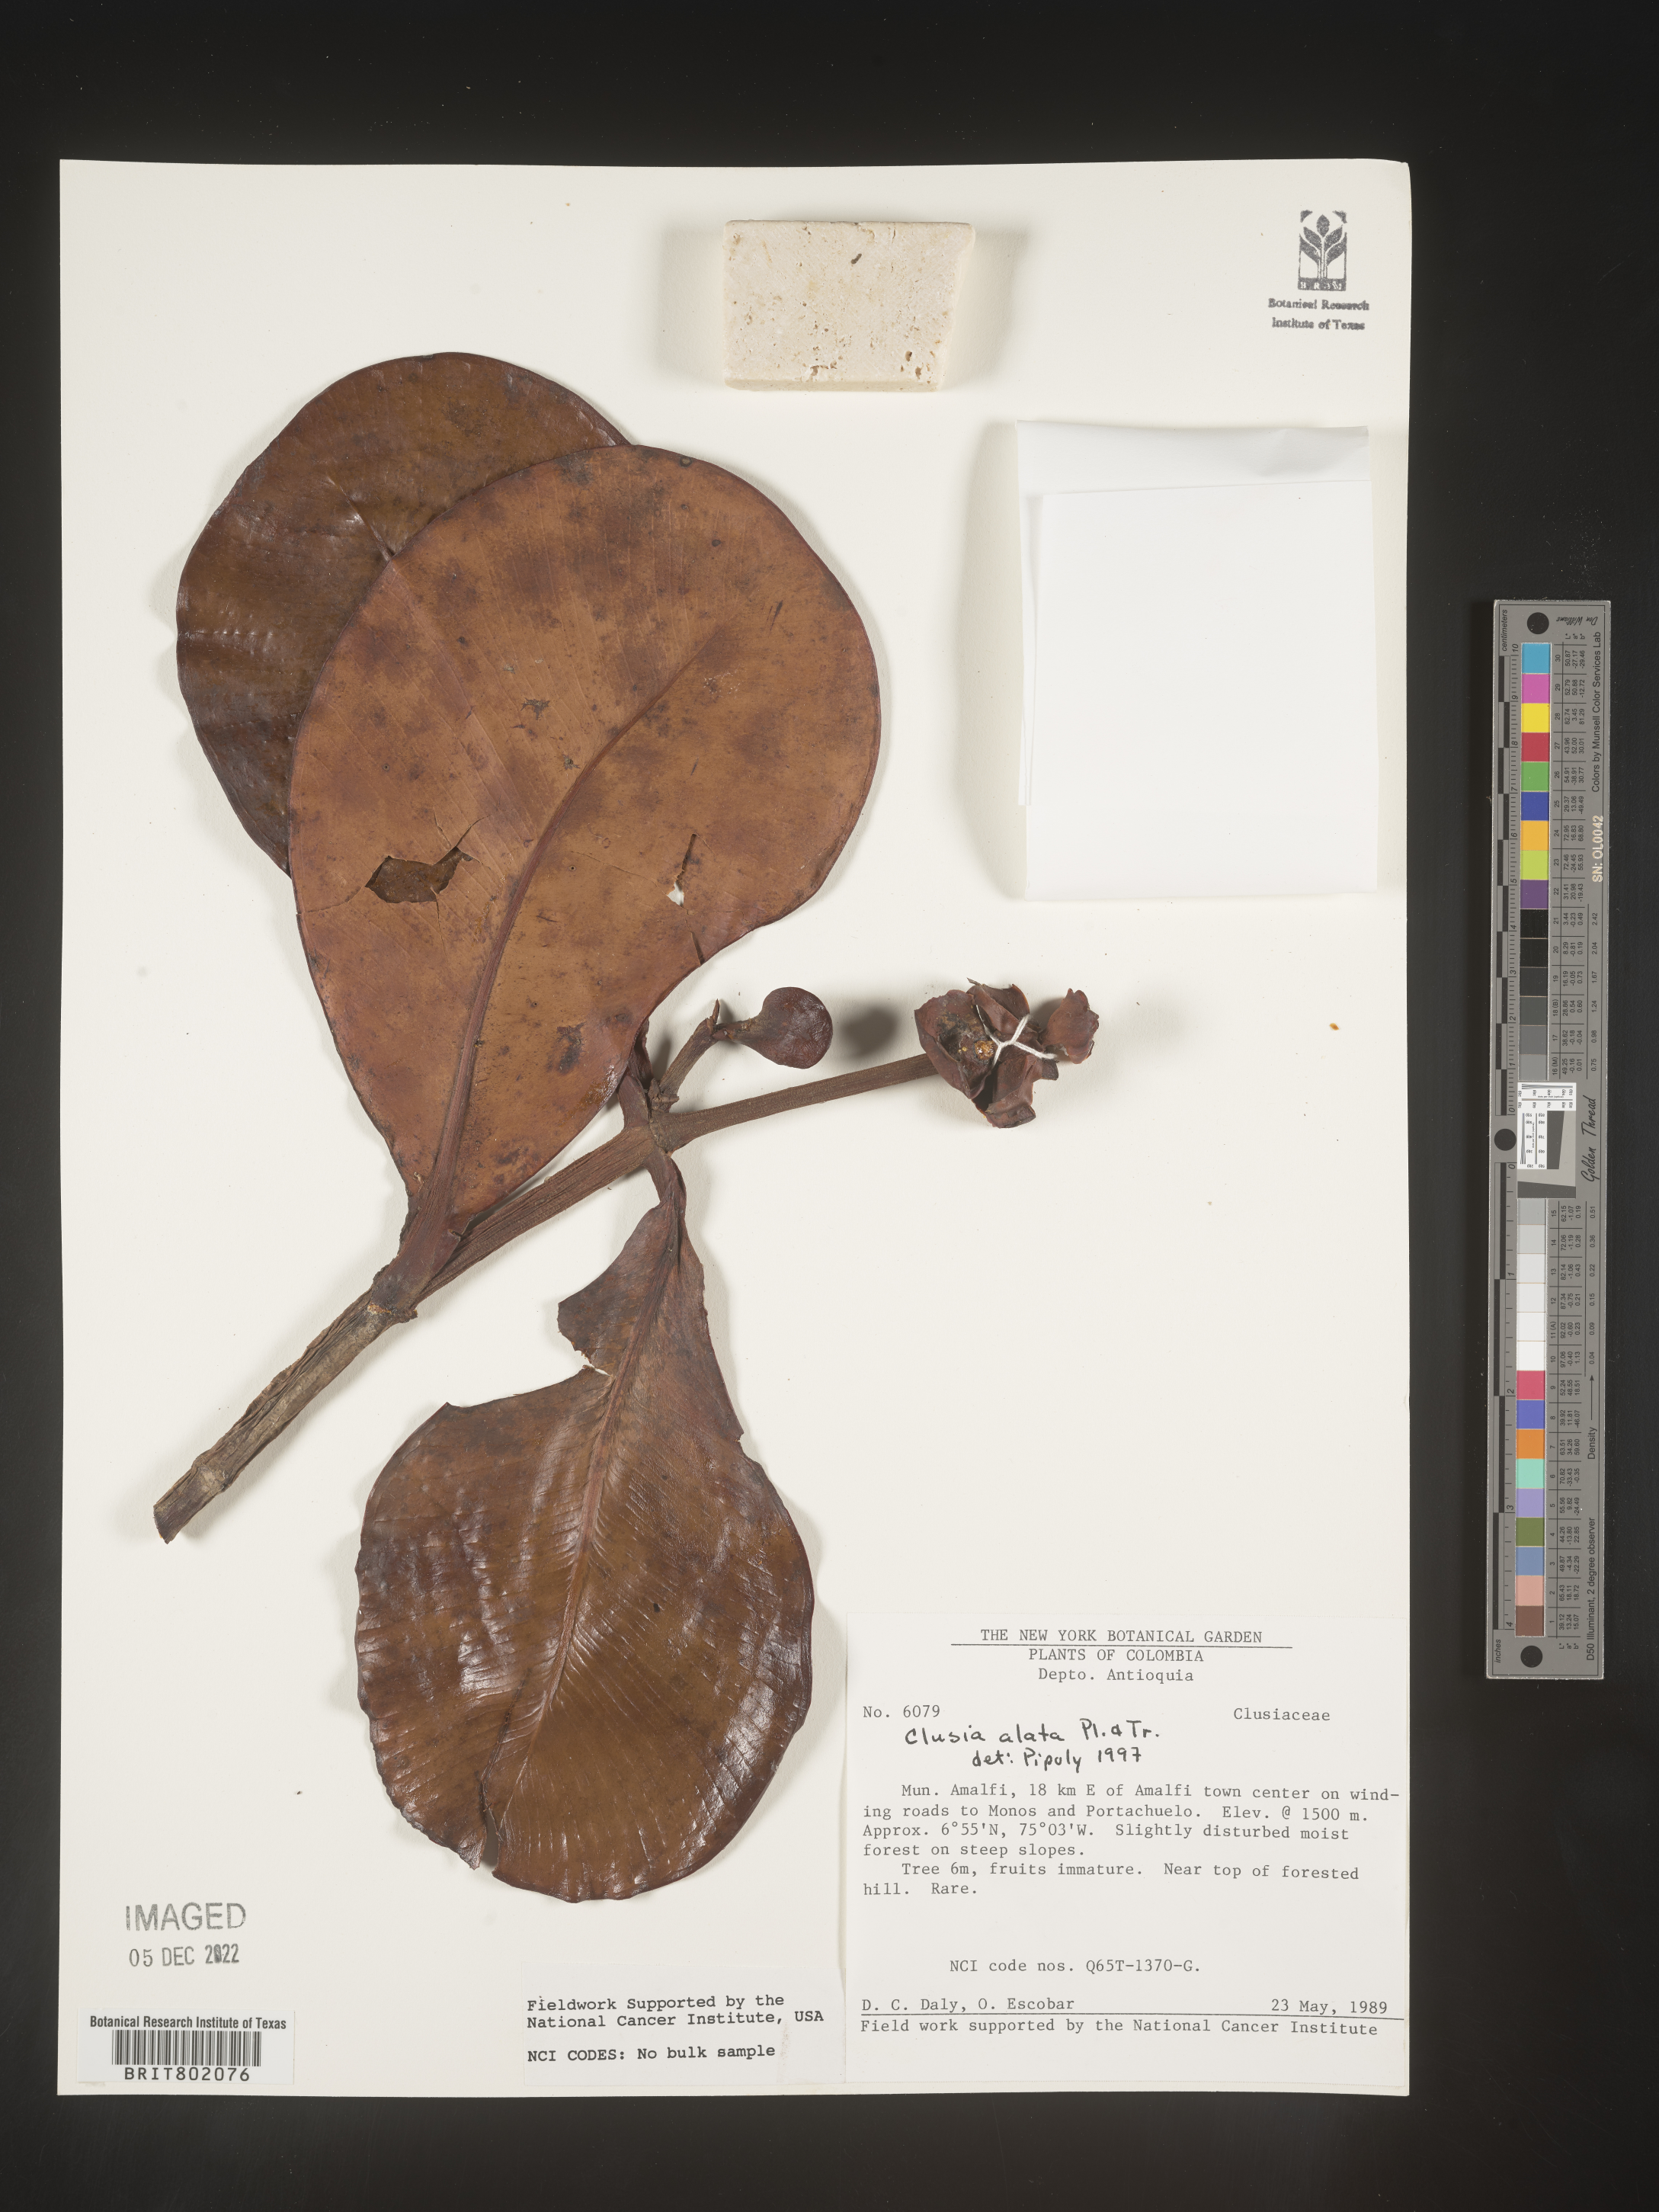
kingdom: Plantae
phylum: Tracheophyta
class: Magnoliopsida
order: Malpighiales
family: Clusiaceae
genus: Clusia
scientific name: Clusia alata
